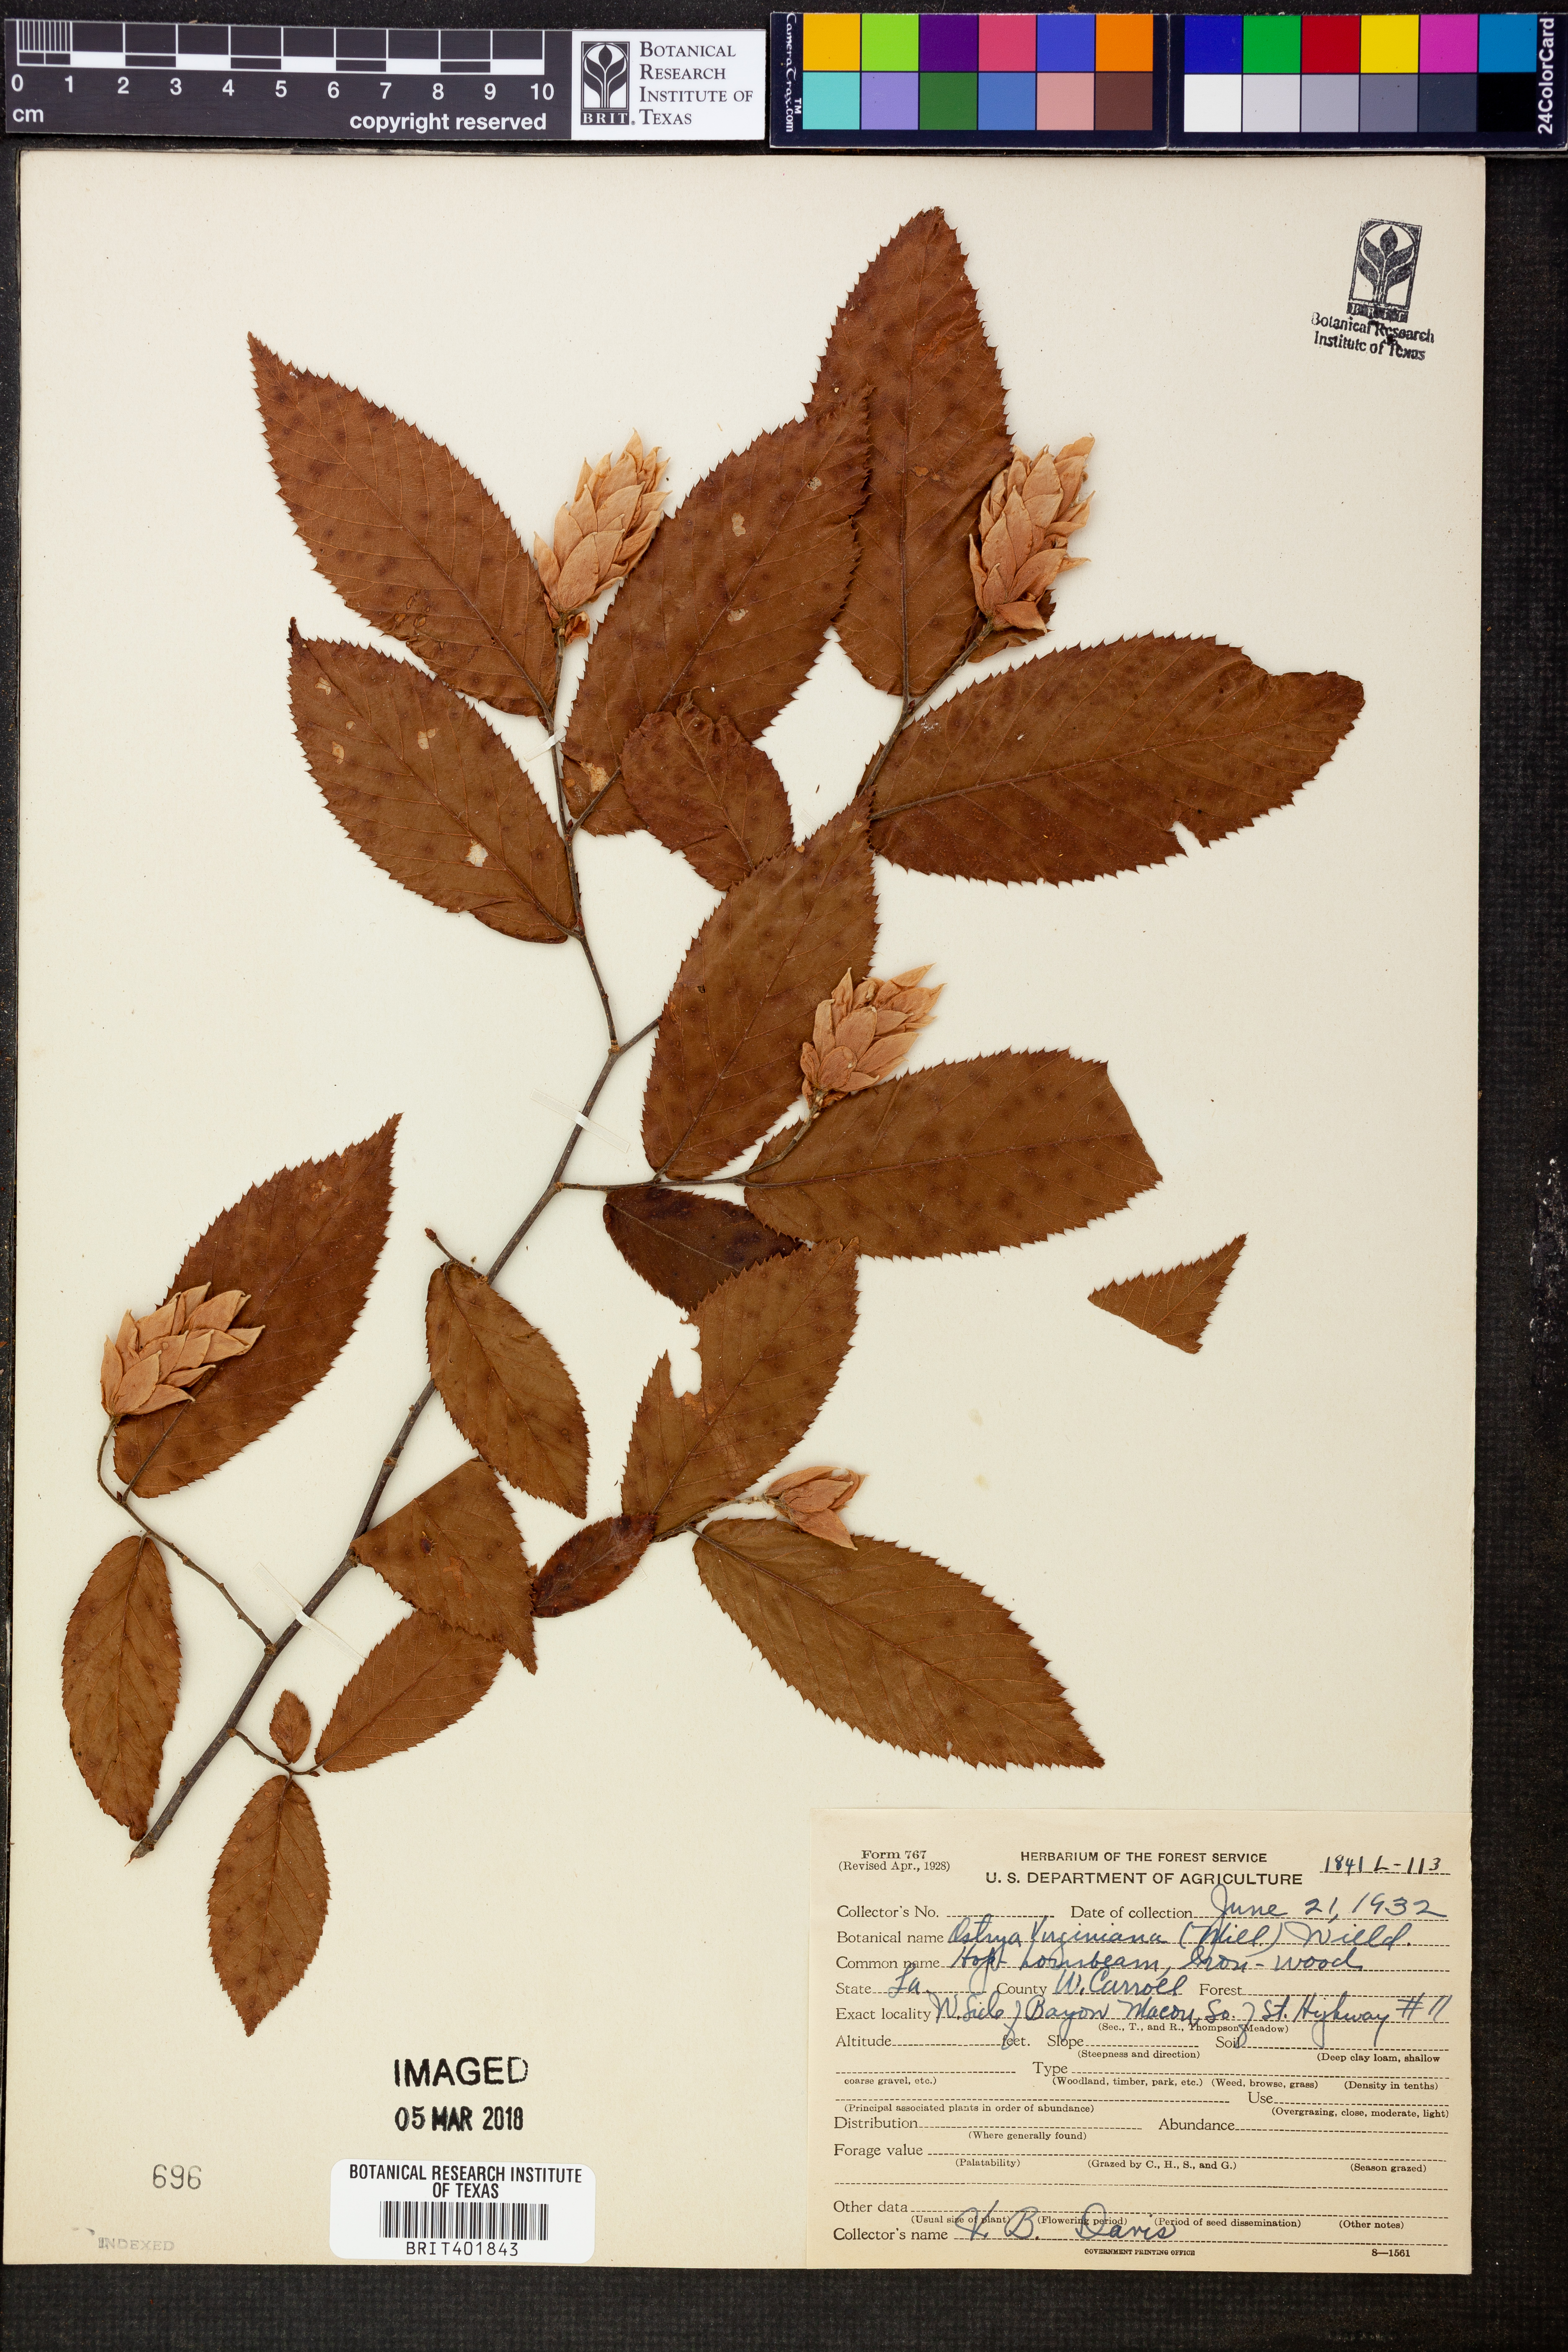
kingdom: Plantae
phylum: Tracheophyta
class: Magnoliopsida
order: Fagales
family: Betulaceae
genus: Ostrya
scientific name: Ostrya virginiana
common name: Ironwood
